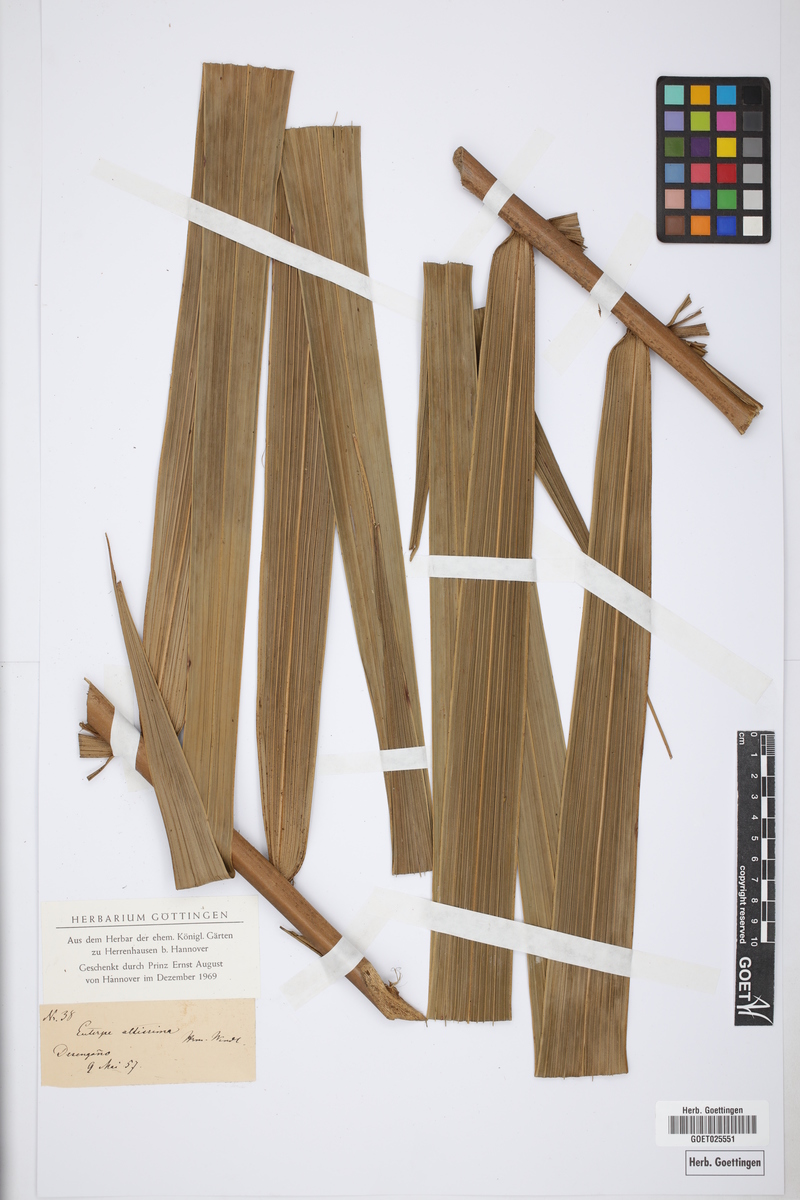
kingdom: Plantae
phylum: Tracheophyta
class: Liliopsida
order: Arecales
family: Arecaceae
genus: Euterpe
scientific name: Euterpe
